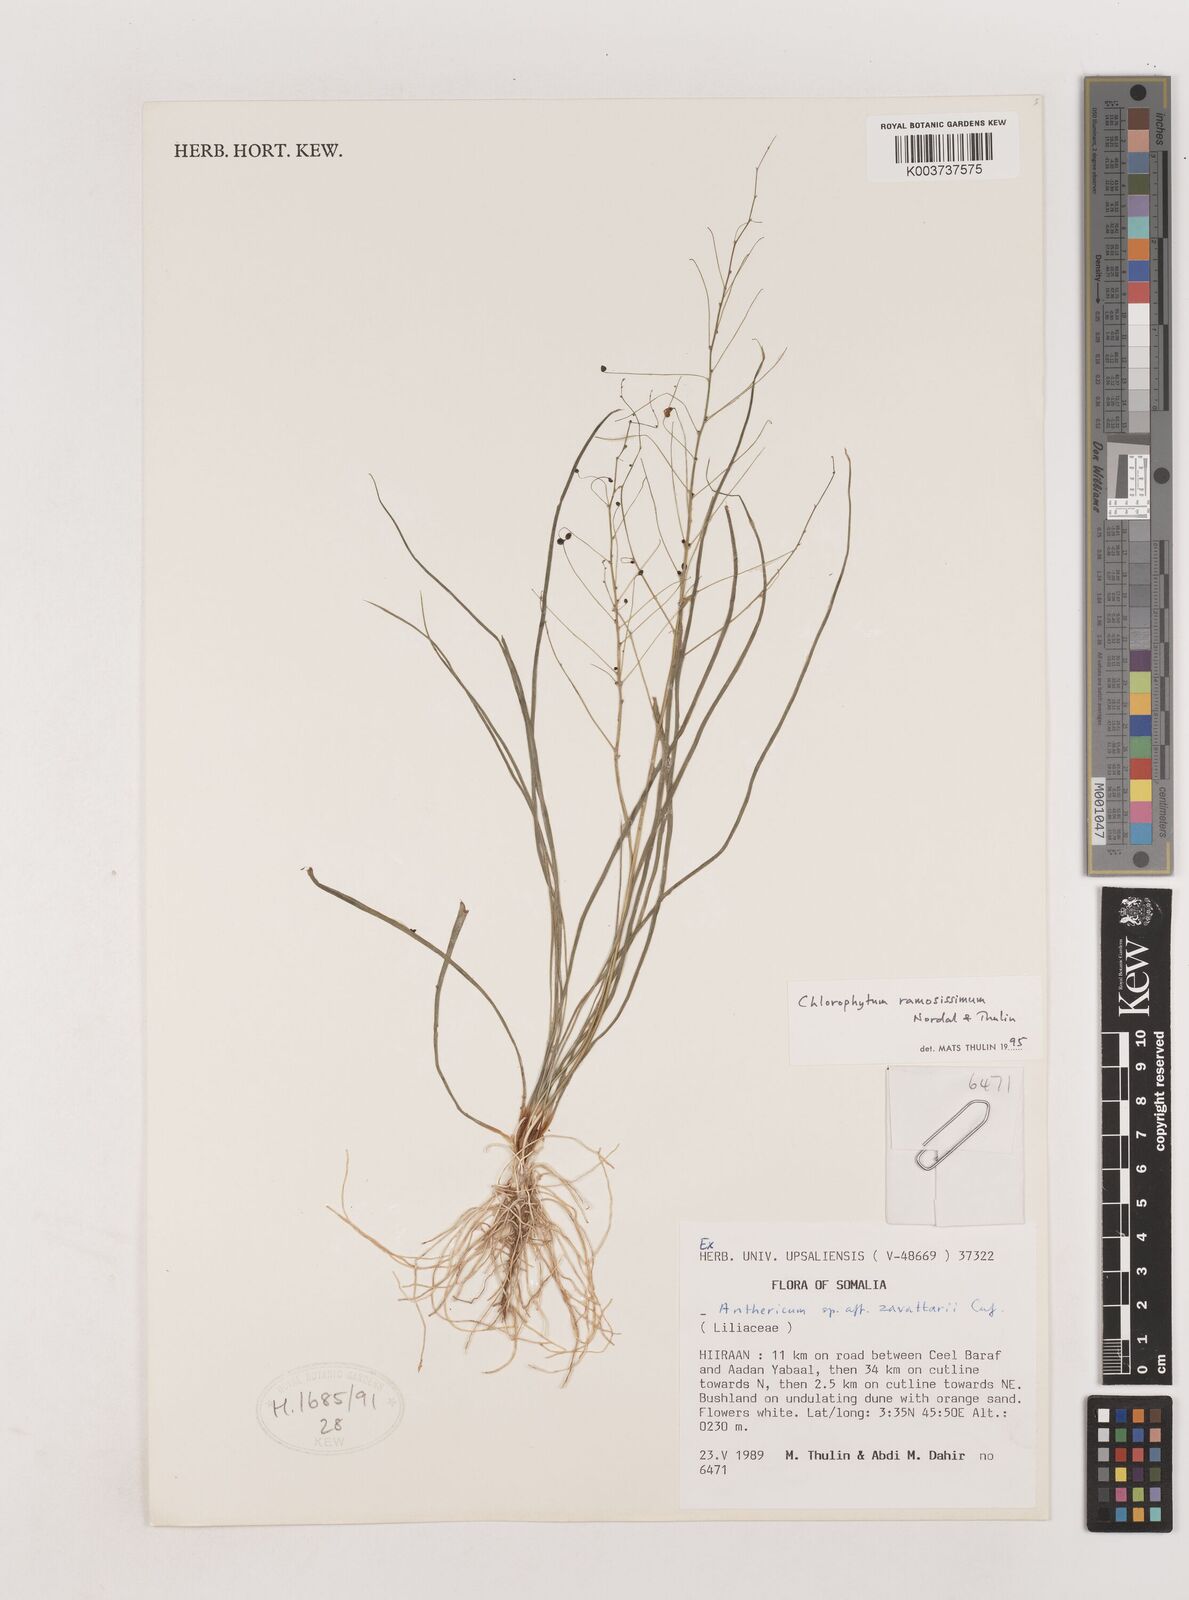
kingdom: Plantae
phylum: Tracheophyta
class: Liliopsida
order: Asparagales
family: Asparagaceae
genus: Chlorophytum
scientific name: Chlorophytum ramosissimum
